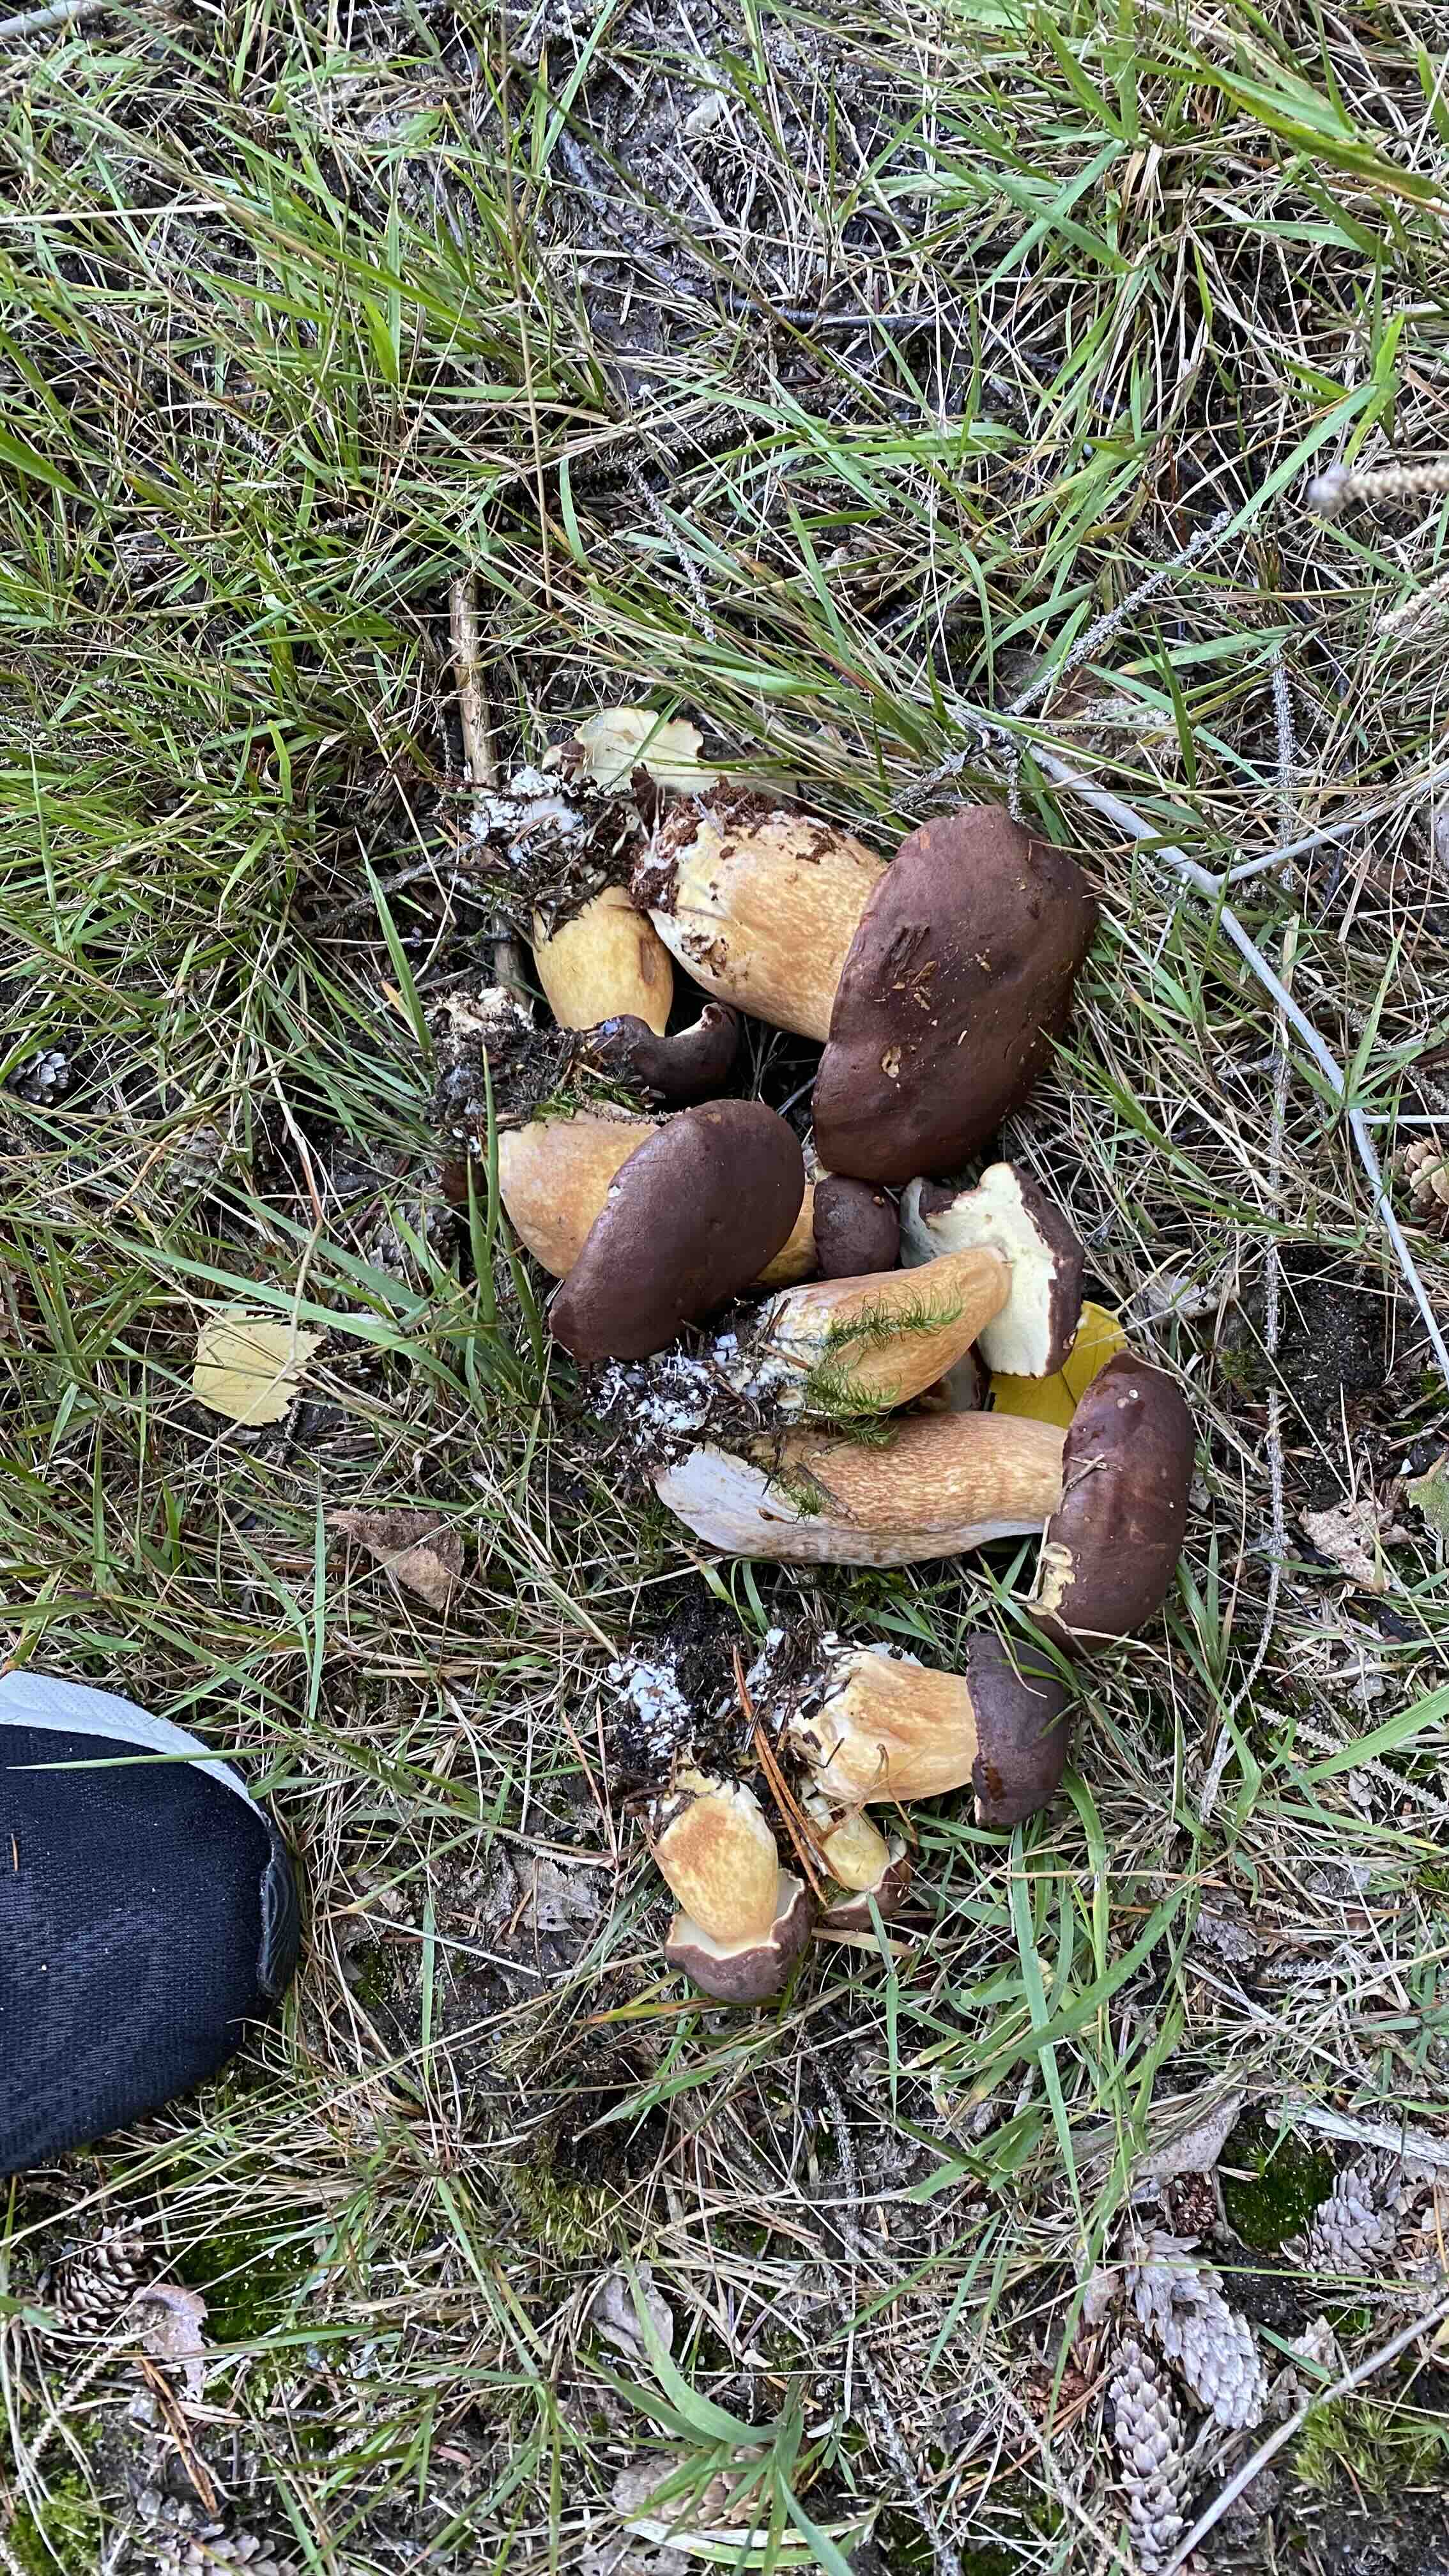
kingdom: Fungi
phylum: Basidiomycota
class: Agaricomycetes
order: Boletales
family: Boletaceae
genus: Imleria
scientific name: Imleria badia
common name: brunstokket rørhat
